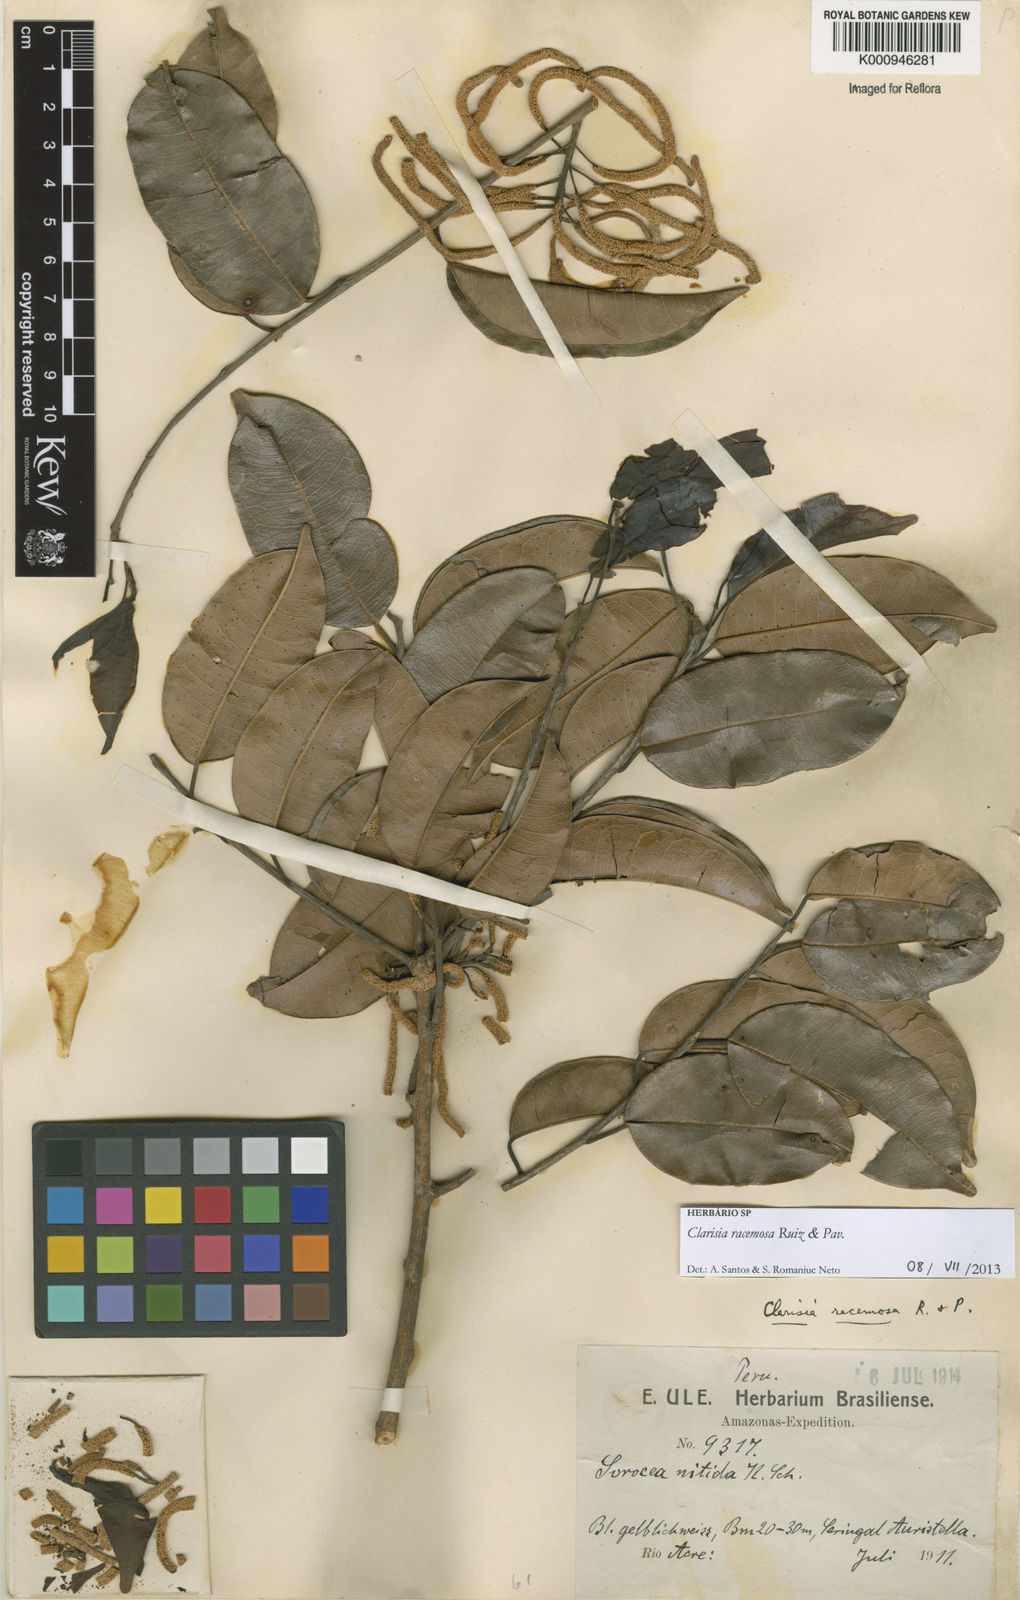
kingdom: Plantae
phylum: Tracheophyta
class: Magnoliopsida
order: Rosales
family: Moraceae
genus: Clarisia
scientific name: Clarisia racemosa
